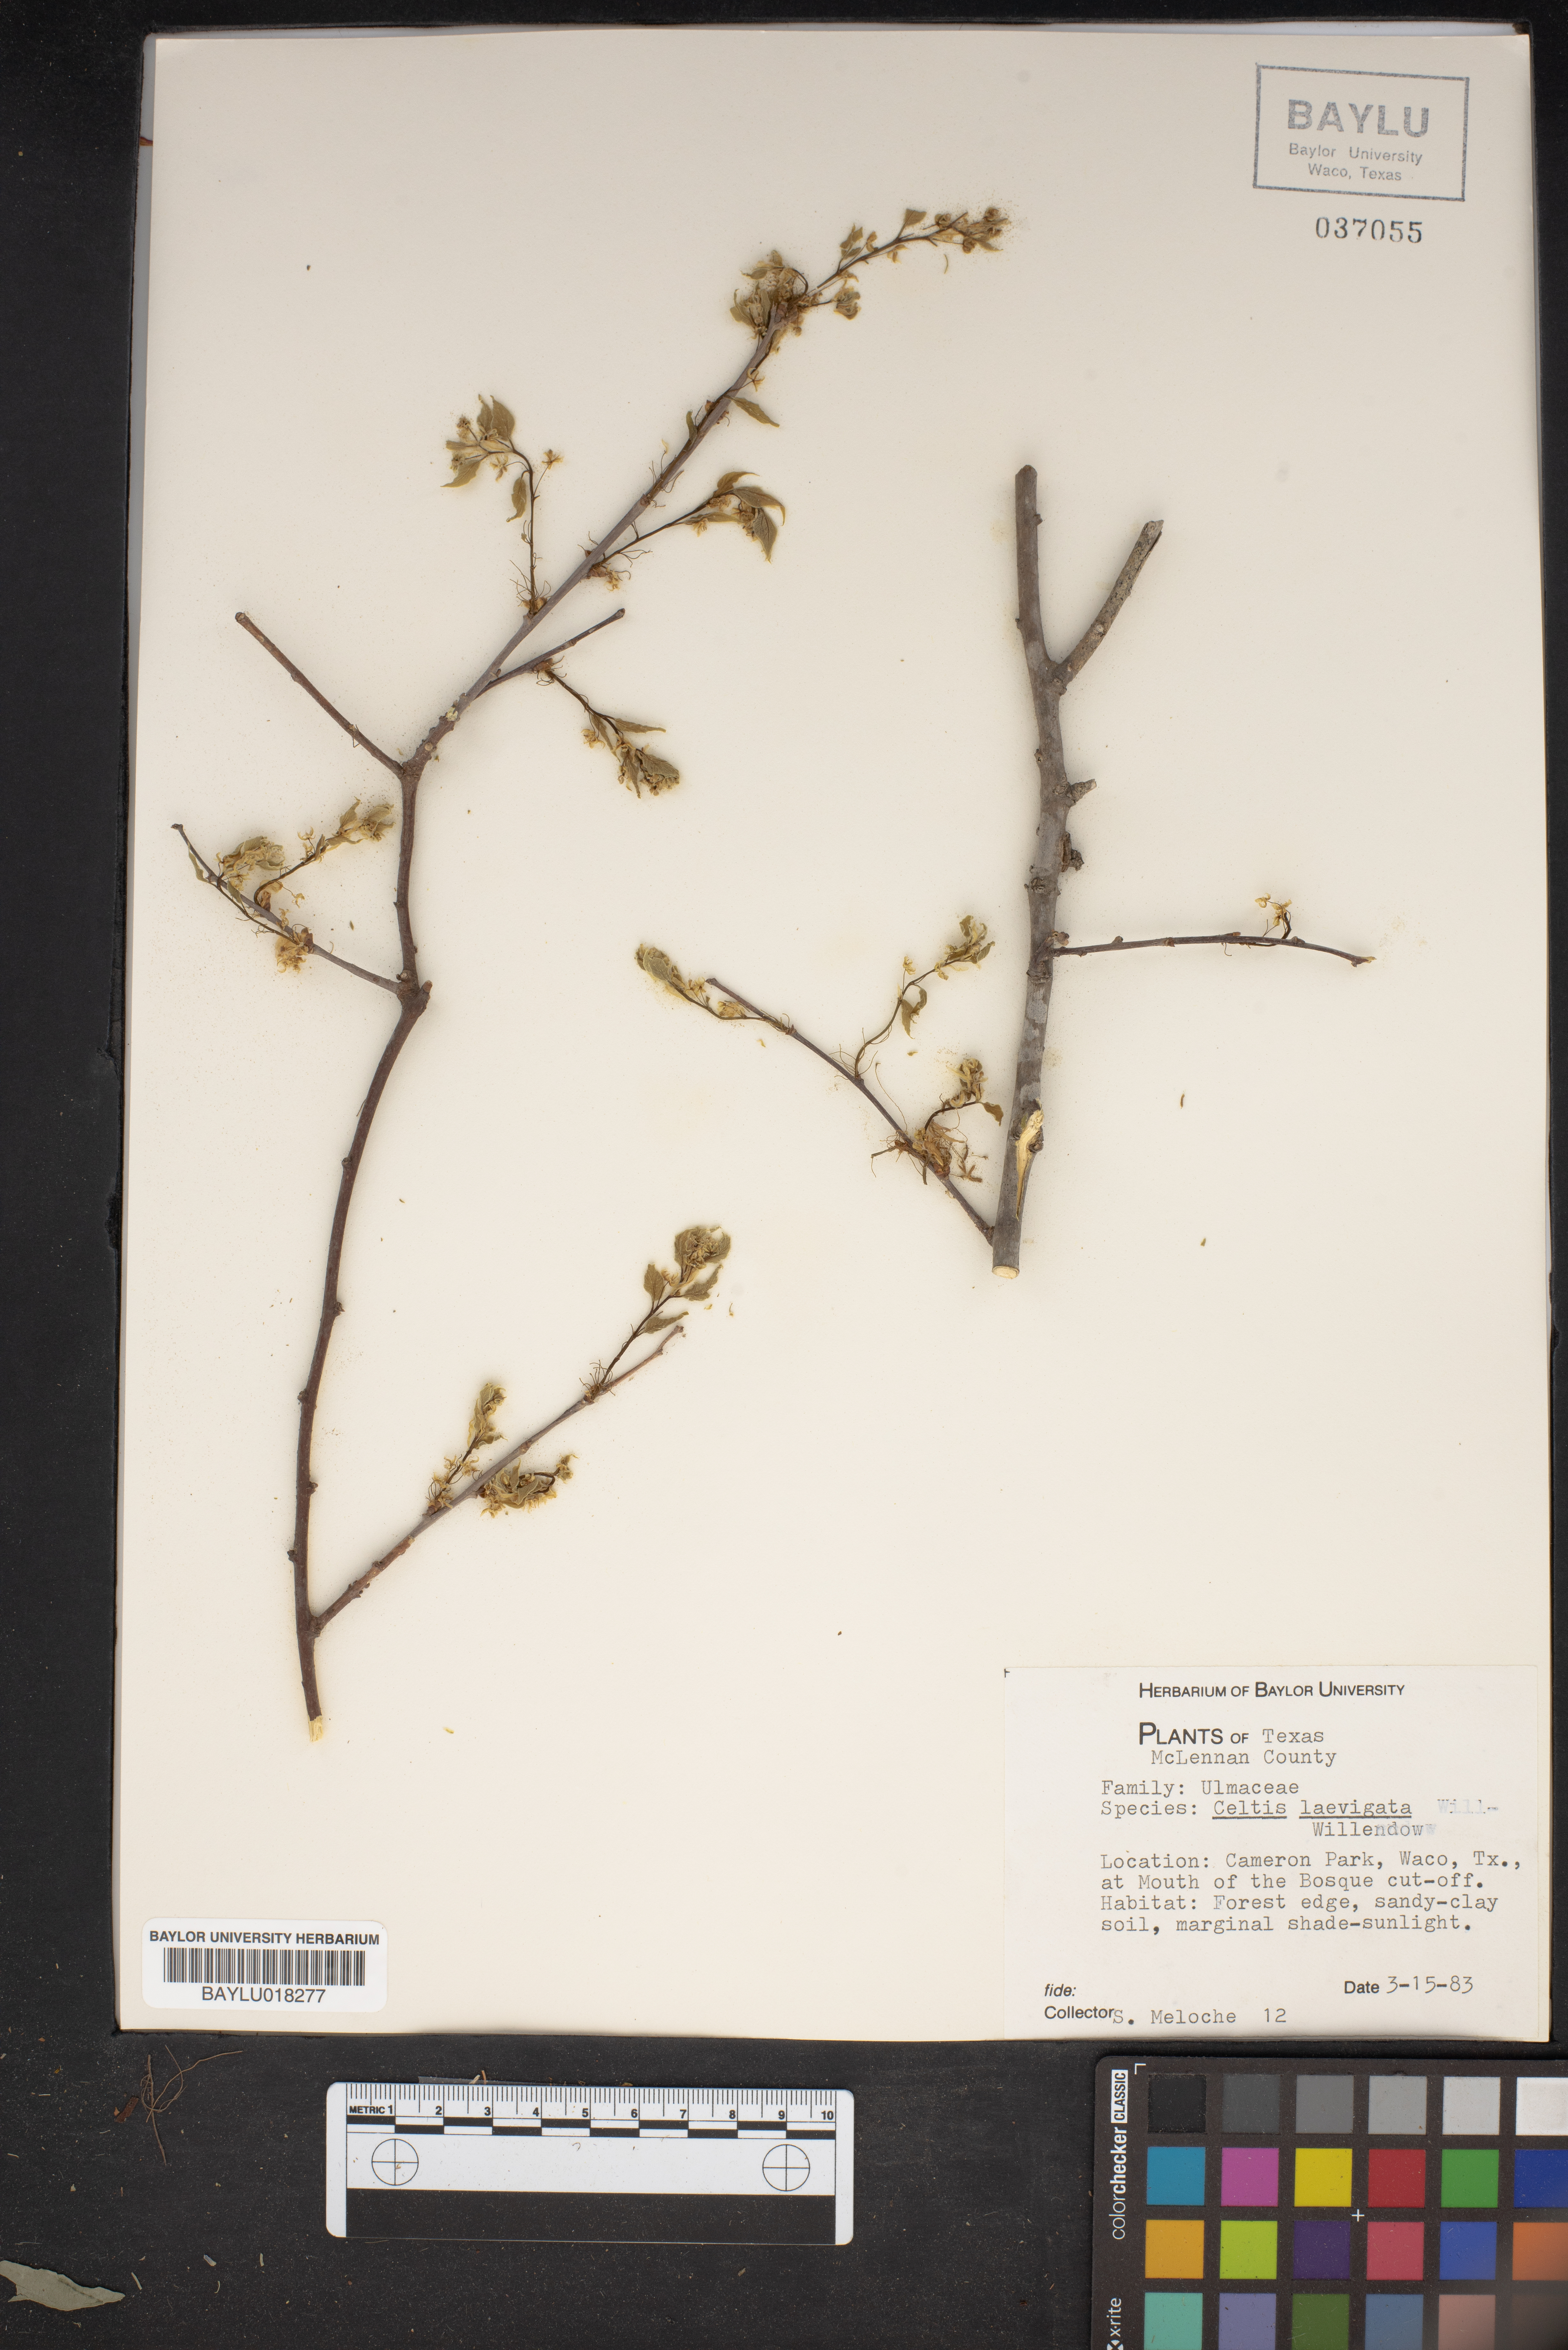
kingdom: Plantae
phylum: Tracheophyta
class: Magnoliopsida
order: Rosales
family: Cannabaceae
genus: Celtis
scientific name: Celtis laevigata
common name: Sugarberry
